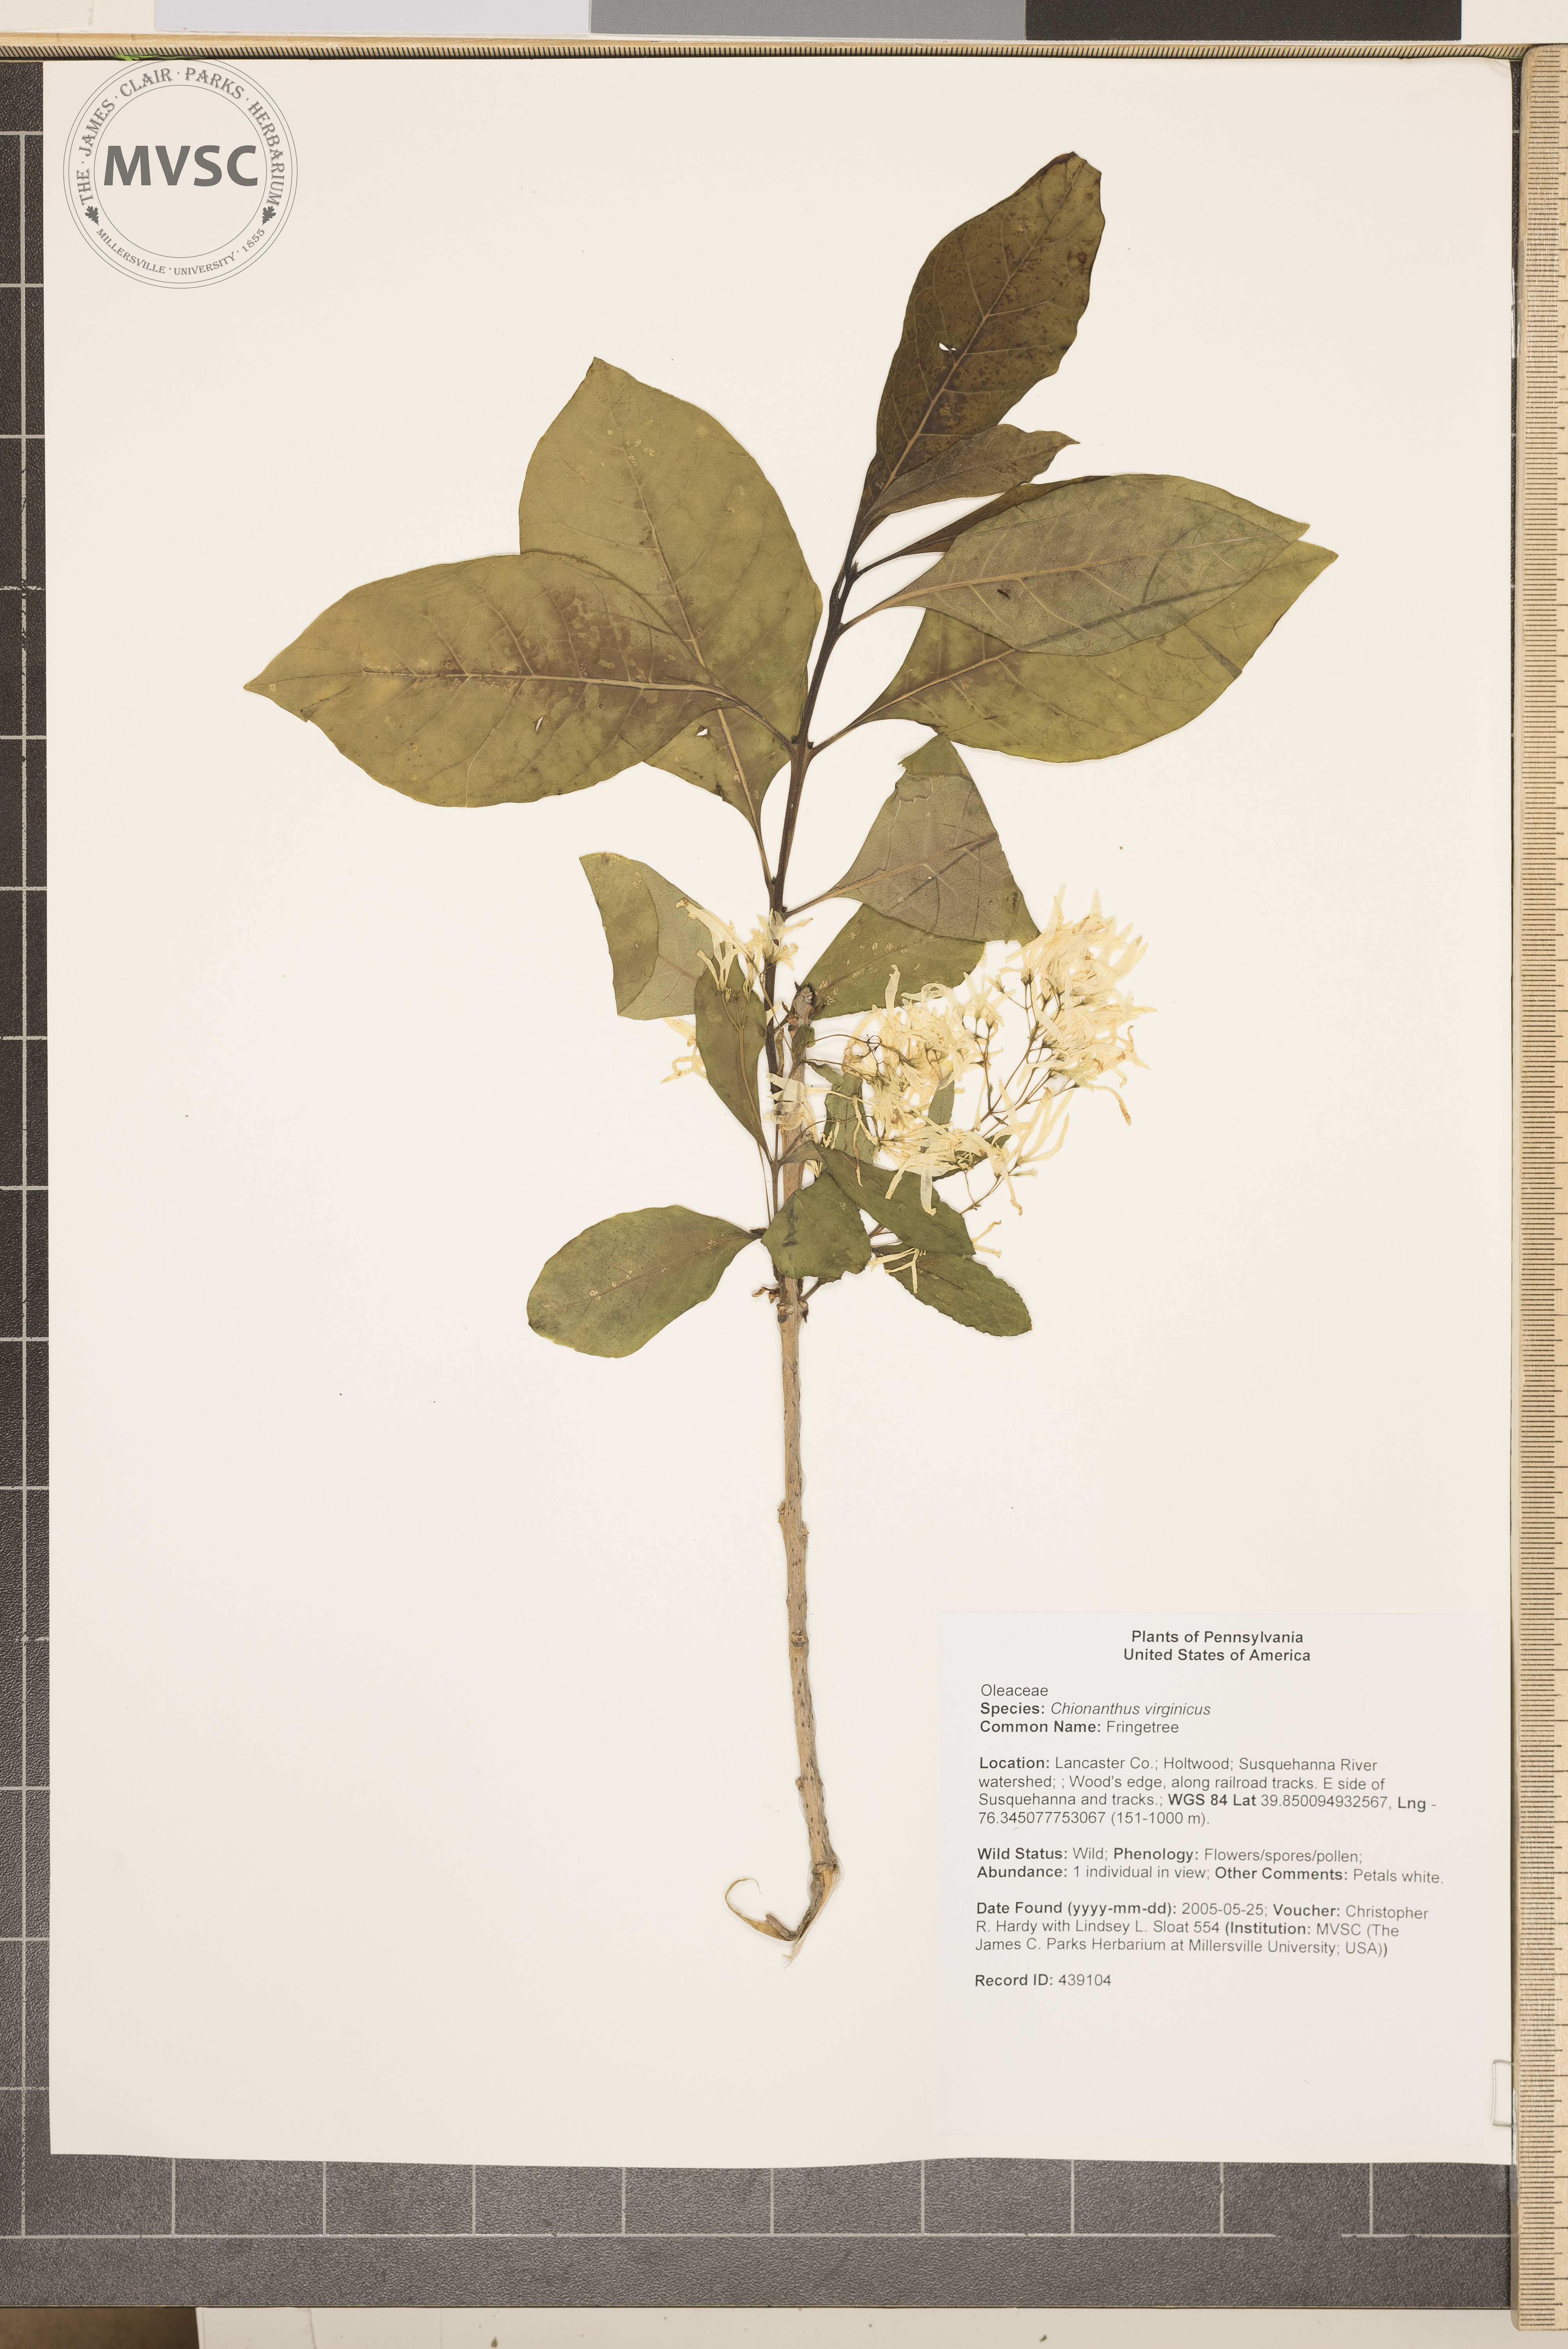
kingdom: Plantae
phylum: Tracheophyta
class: Magnoliopsida
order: Lamiales
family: Oleaceae
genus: Chionanthus
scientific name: Chionanthus virginicus
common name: Fringetree
